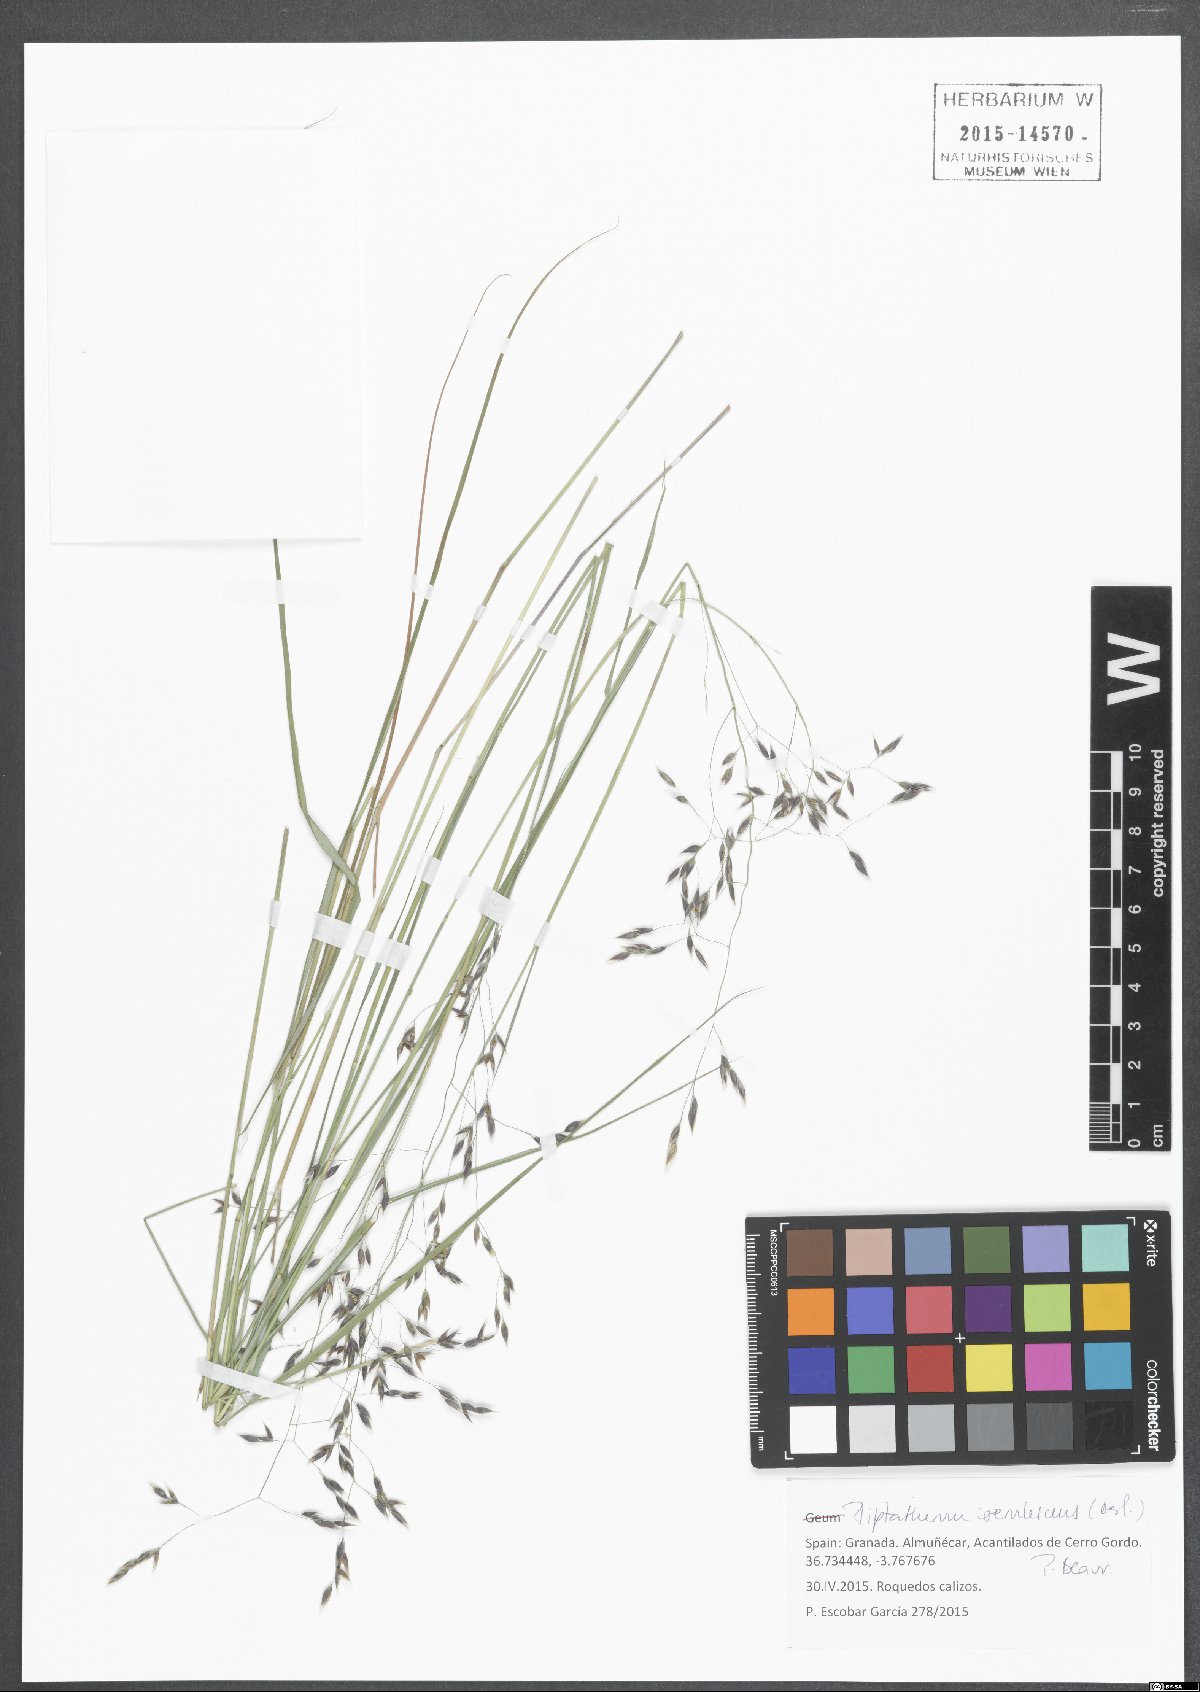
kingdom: Plantae
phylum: Tracheophyta
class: Liliopsida
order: Poales
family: Poaceae
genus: Piptatherum
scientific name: Piptatherum coerulescens
